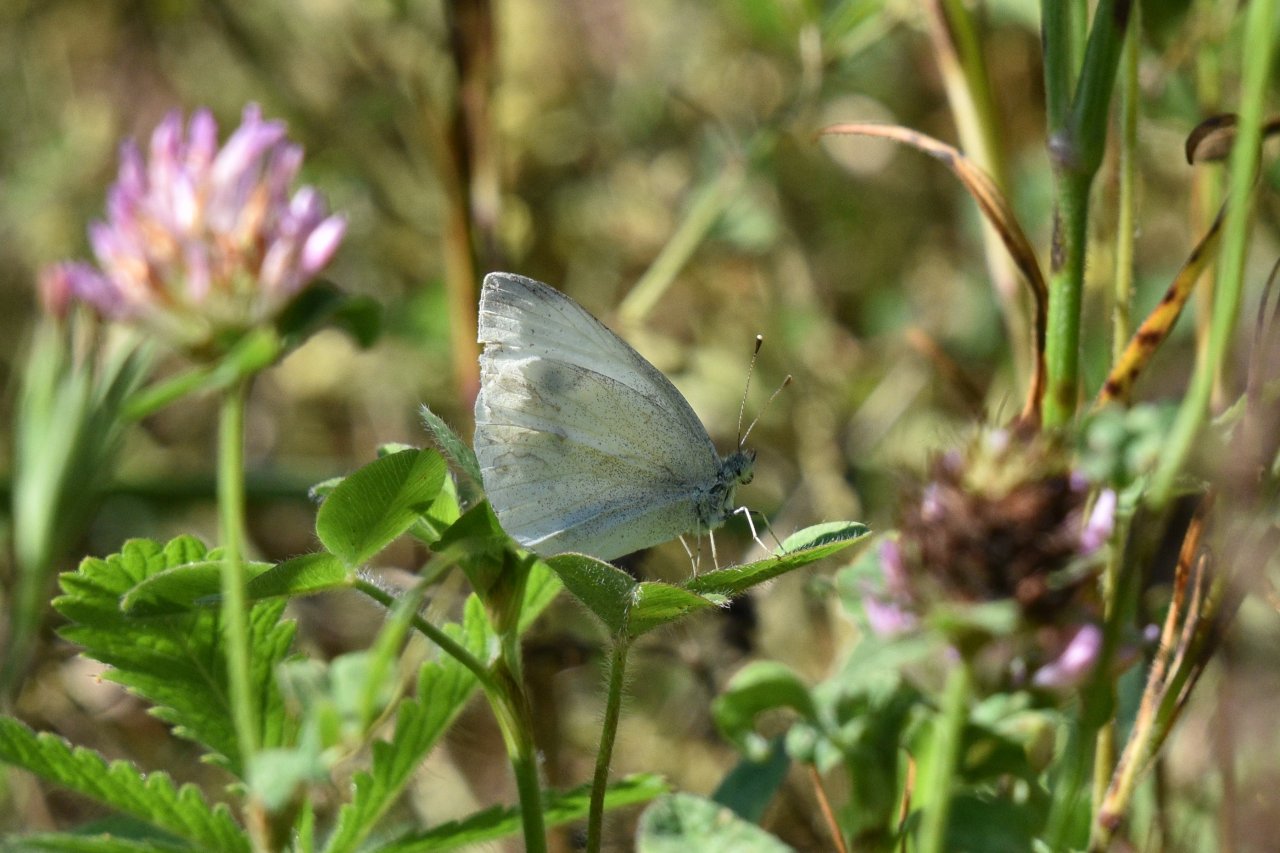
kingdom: Animalia
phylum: Arthropoda
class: Insecta
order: Lepidoptera
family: Pieridae
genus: Pieris
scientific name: Pieris rapae
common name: Cabbage White
